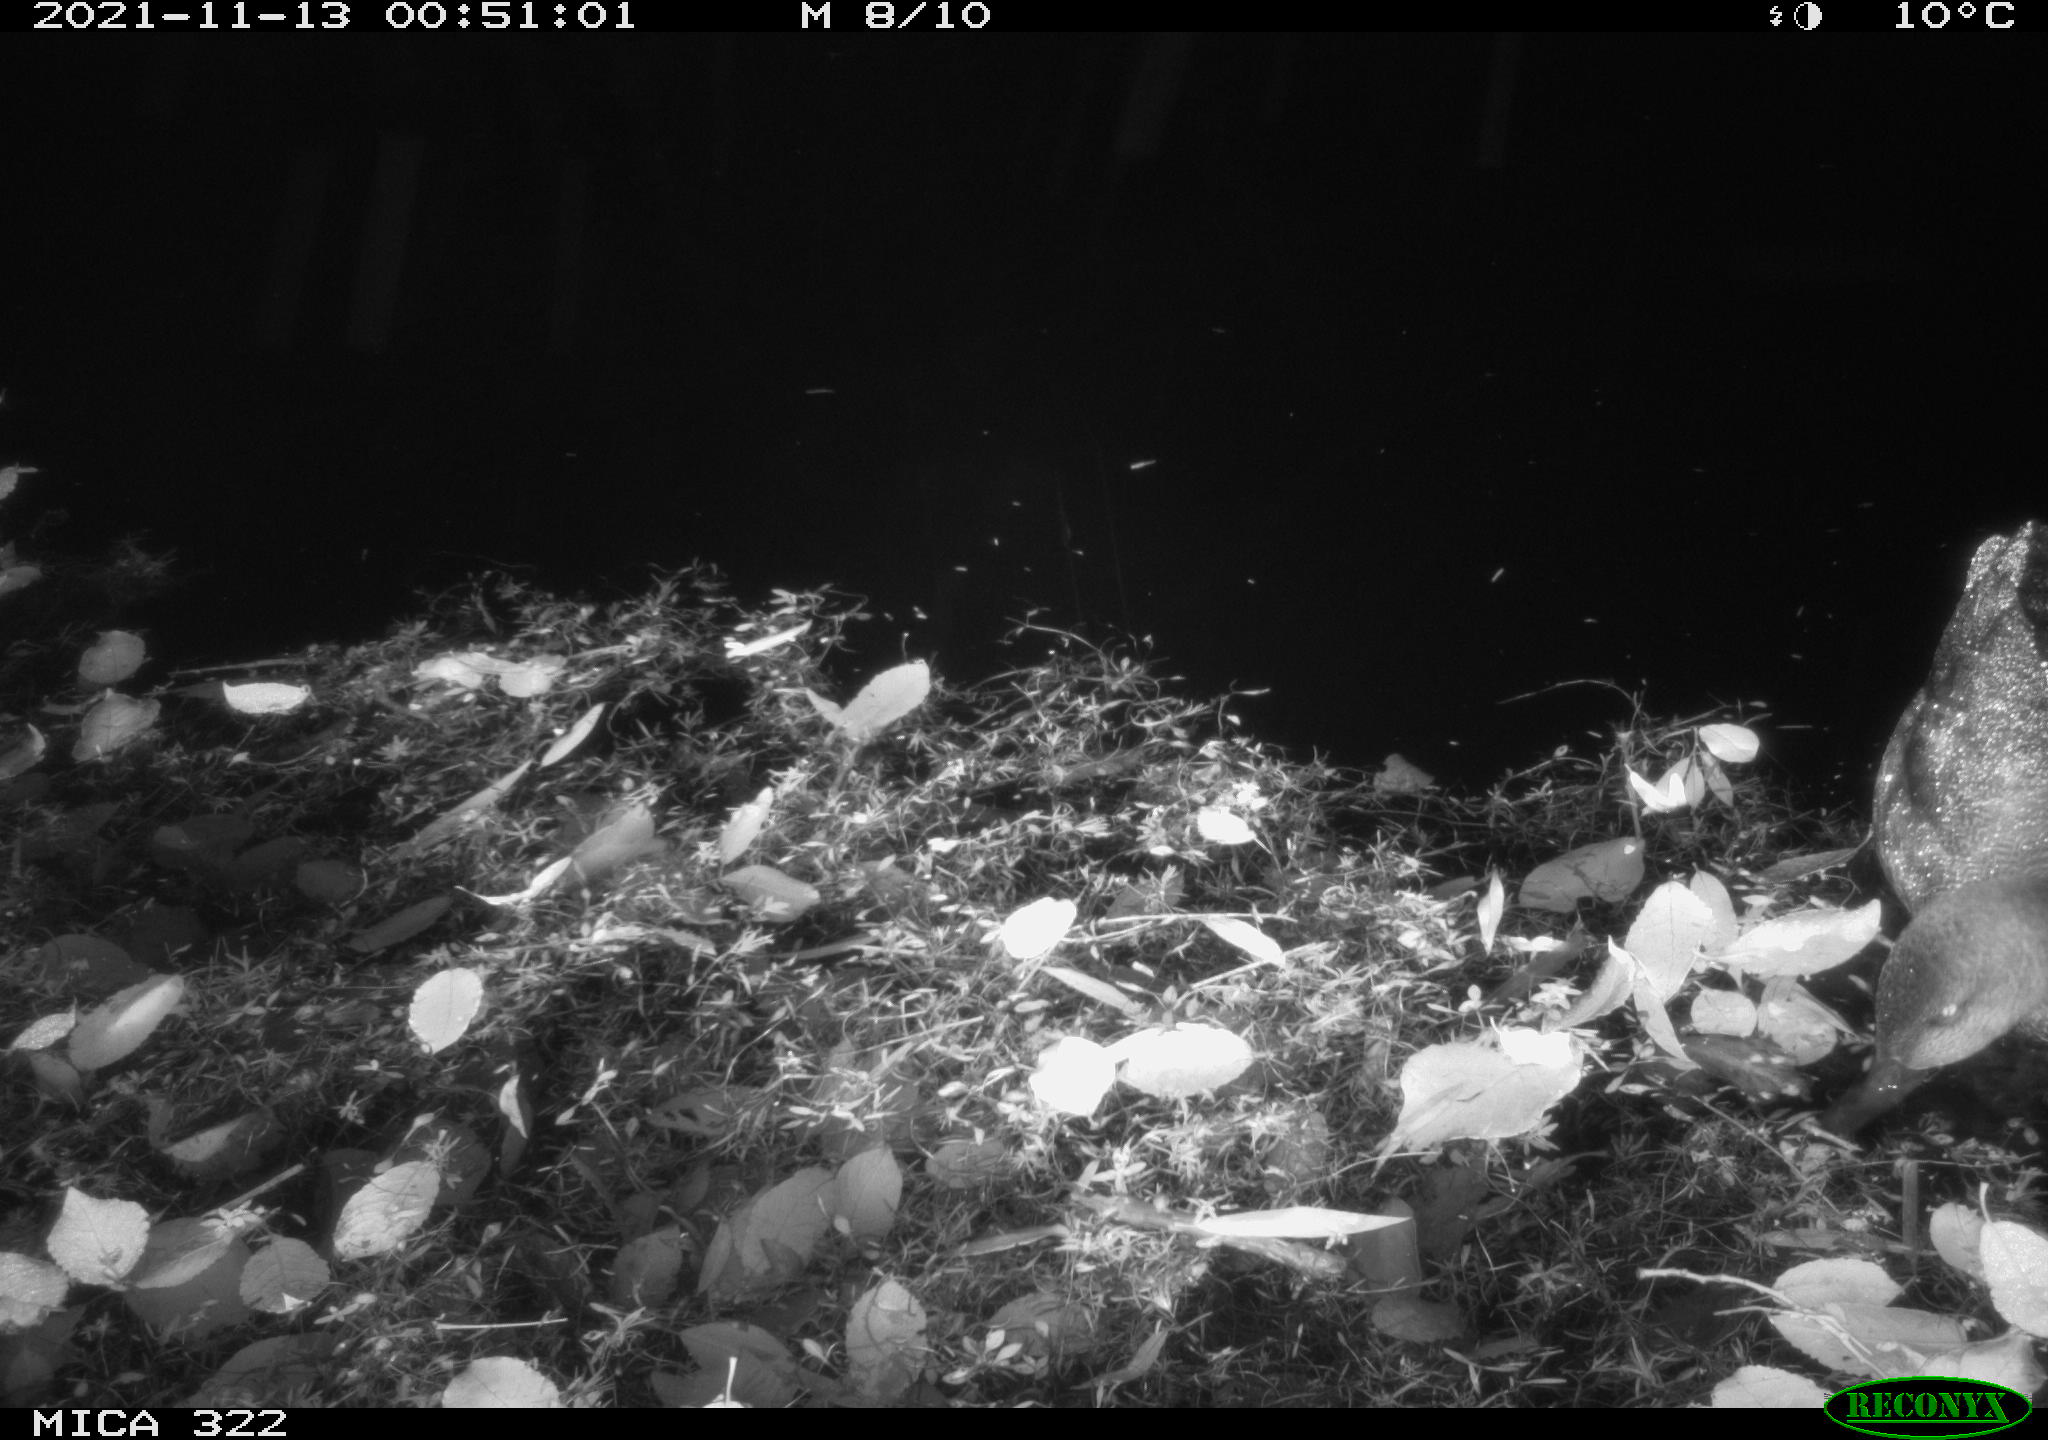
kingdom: Animalia
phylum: Chordata
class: Aves
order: Anseriformes
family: Anatidae
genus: Anas
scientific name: Anas platyrhynchos
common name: Mallard
